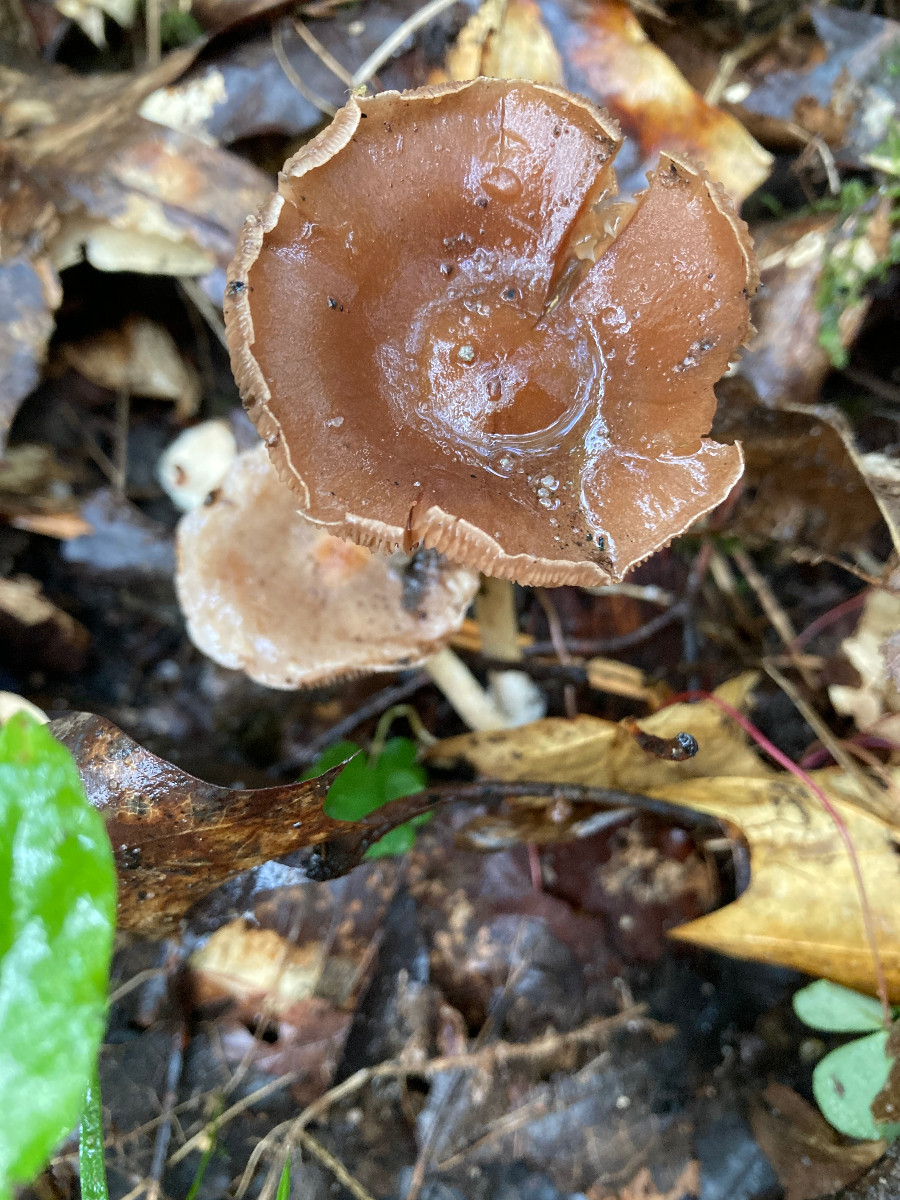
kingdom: Fungi
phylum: Basidiomycota
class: Agaricomycetes
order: Agaricales
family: Cortinariaceae
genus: Cortinarius
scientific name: Cortinarius
